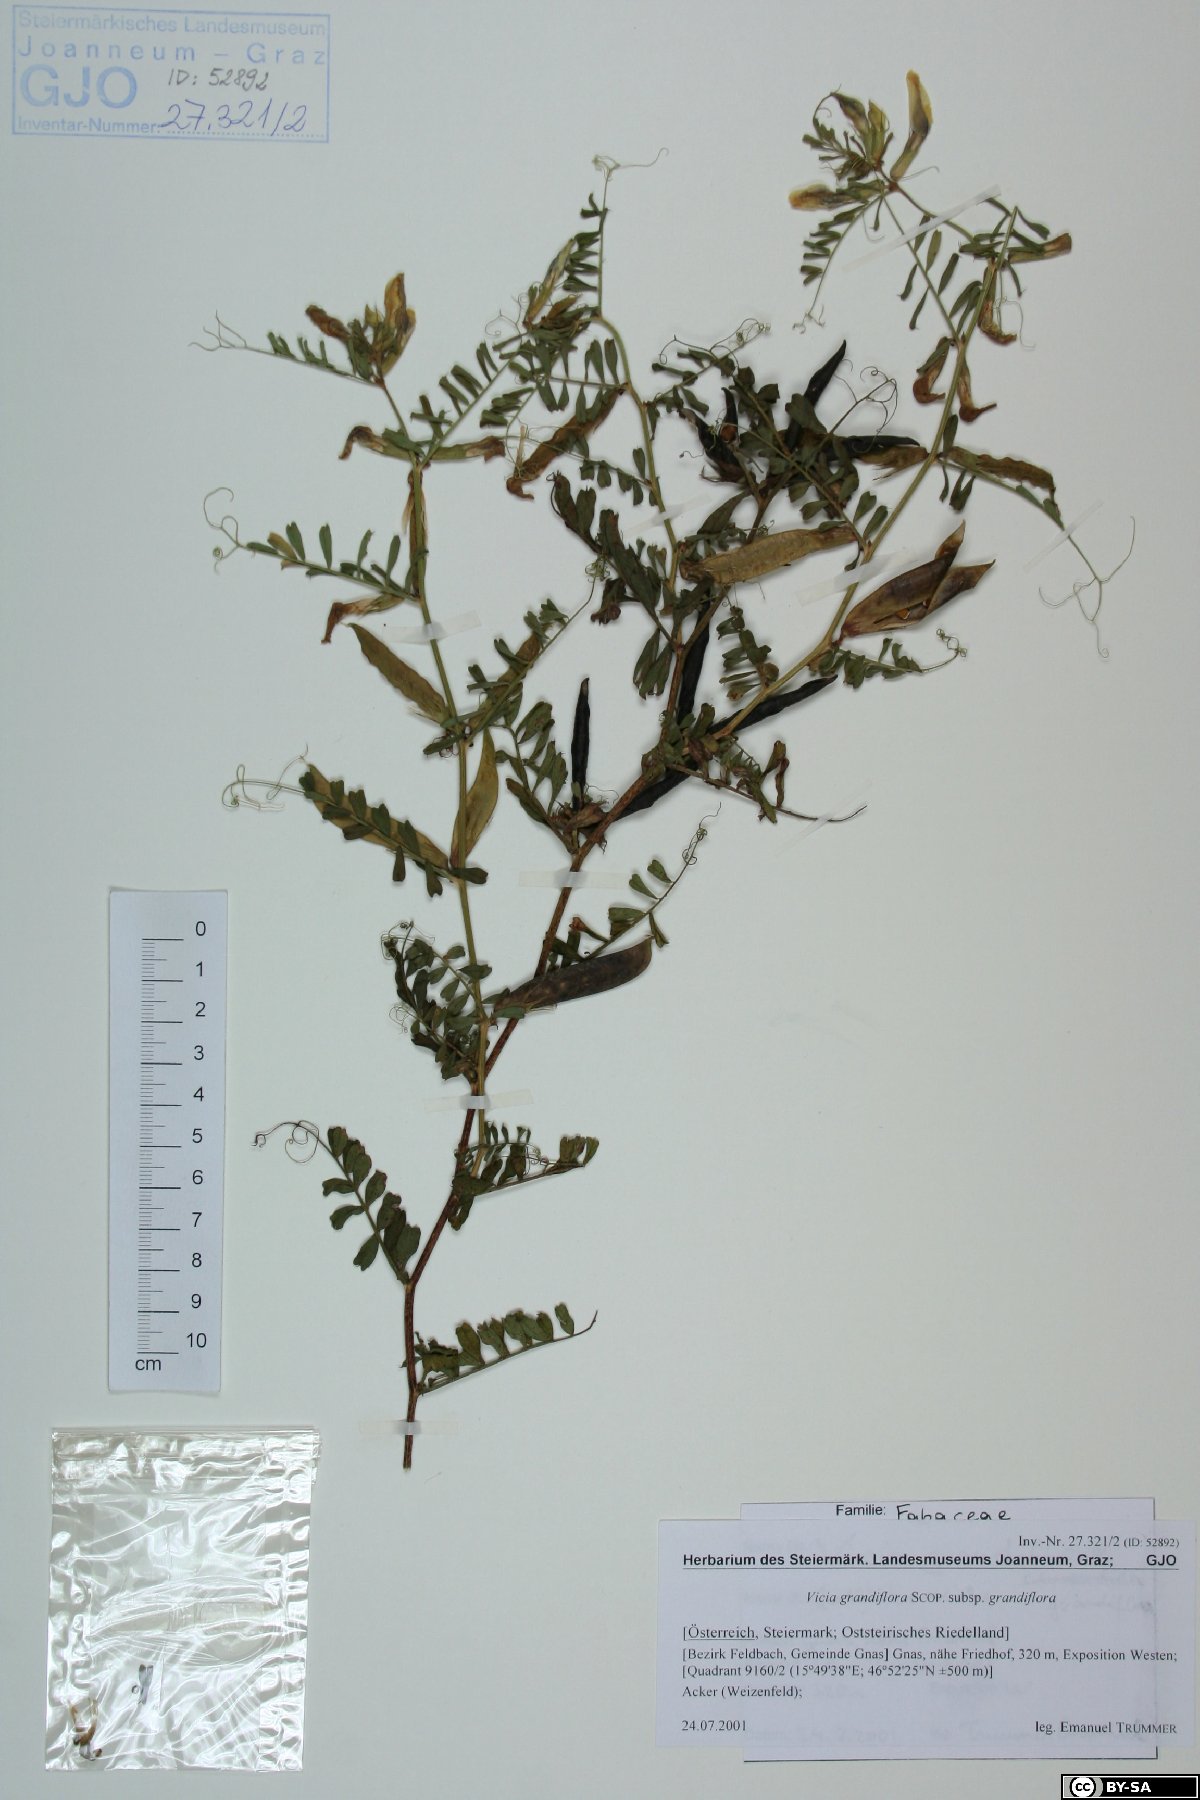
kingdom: Plantae
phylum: Tracheophyta
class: Magnoliopsida
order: Fabales
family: Fabaceae
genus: Vicia
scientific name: Vicia grandiflora
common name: Large yellow vetch
